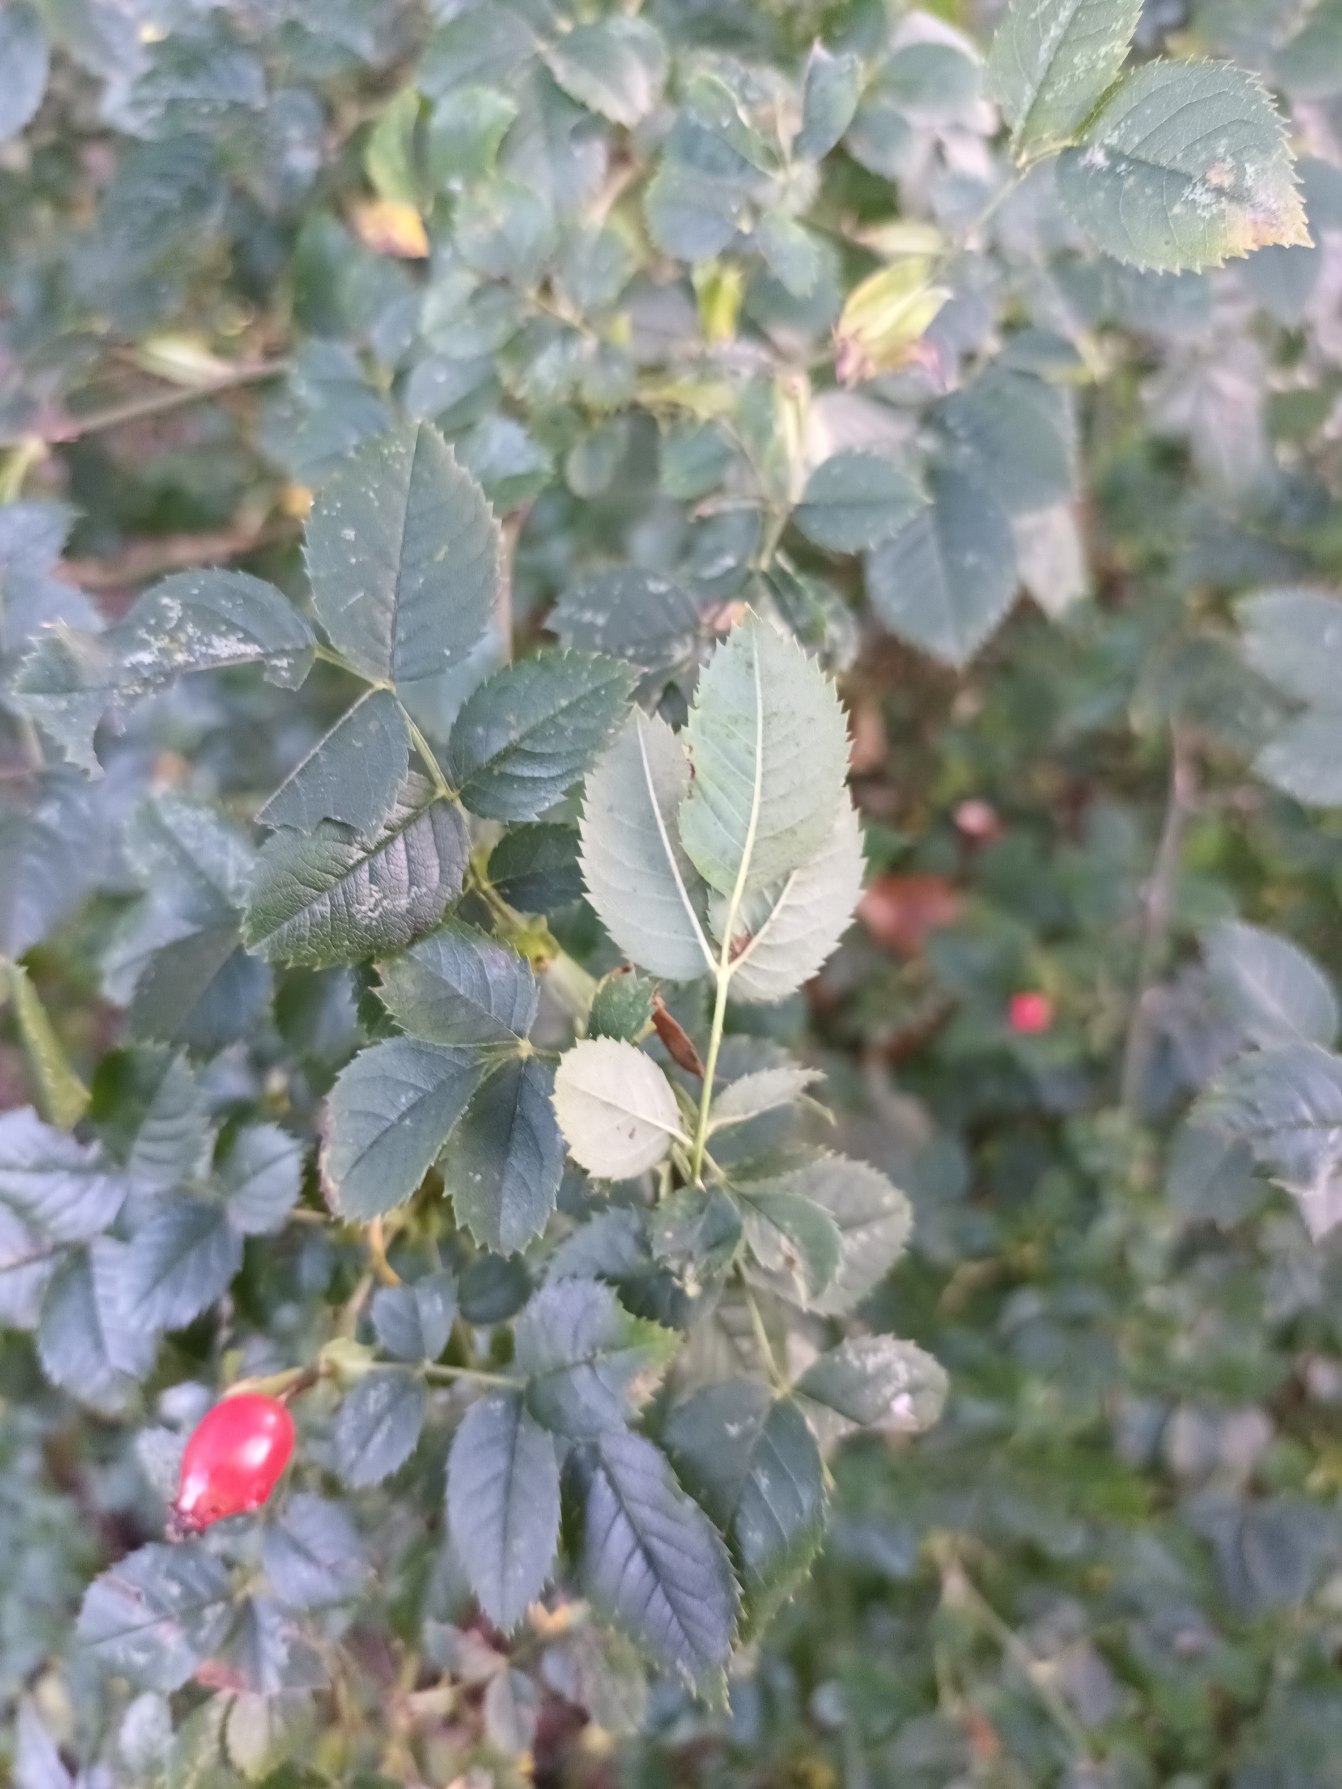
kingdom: Plantae
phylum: Tracheophyta
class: Magnoliopsida
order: Rosales
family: Rosaceae
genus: Rosa
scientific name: Rosa canina
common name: Glat hunde-rose
